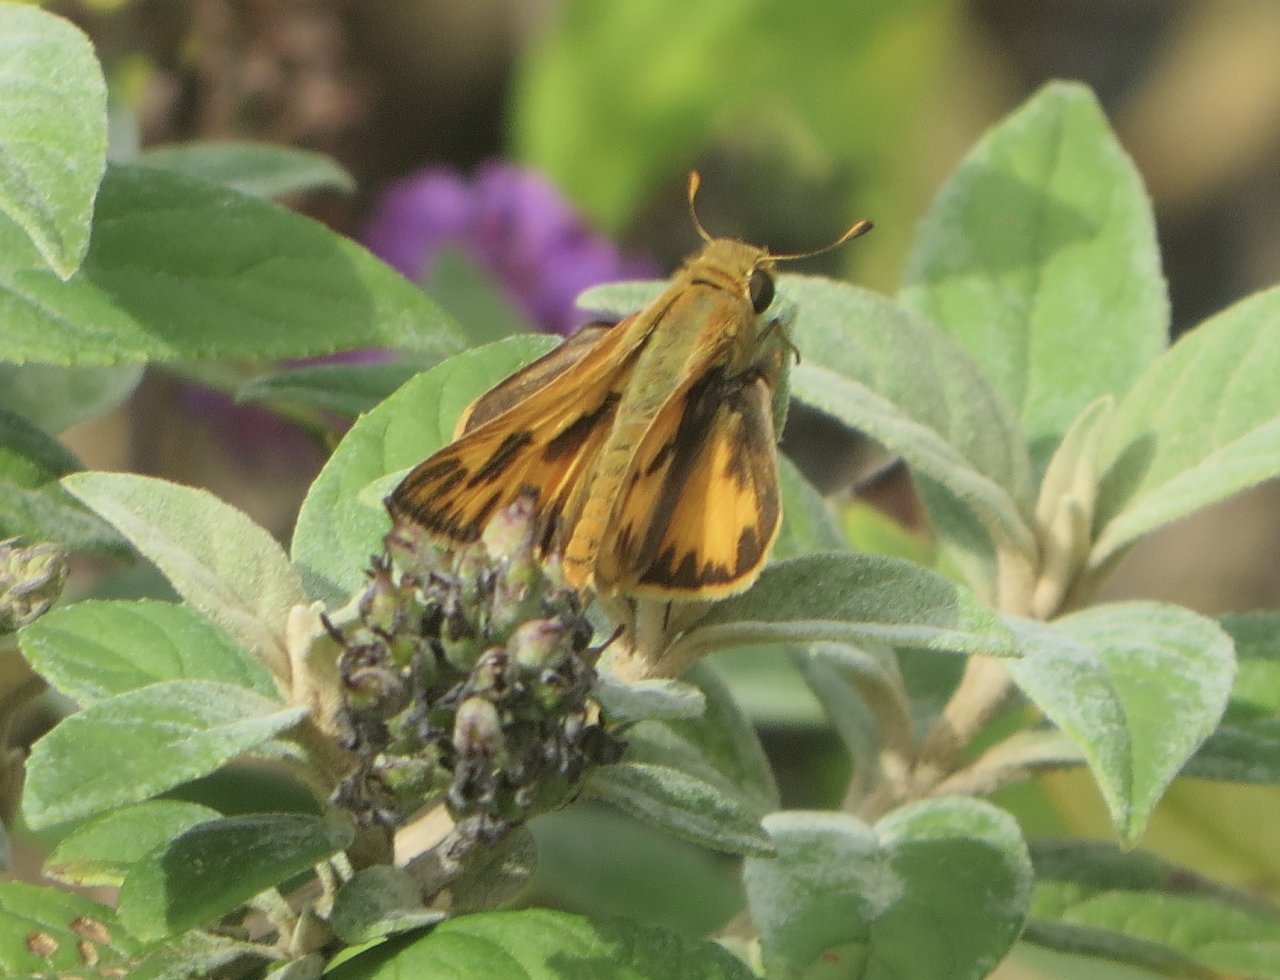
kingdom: Animalia
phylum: Arthropoda
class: Insecta
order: Lepidoptera
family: Hesperiidae
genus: Hylephila
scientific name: Hylephila phyleus
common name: Fiery Skipper
